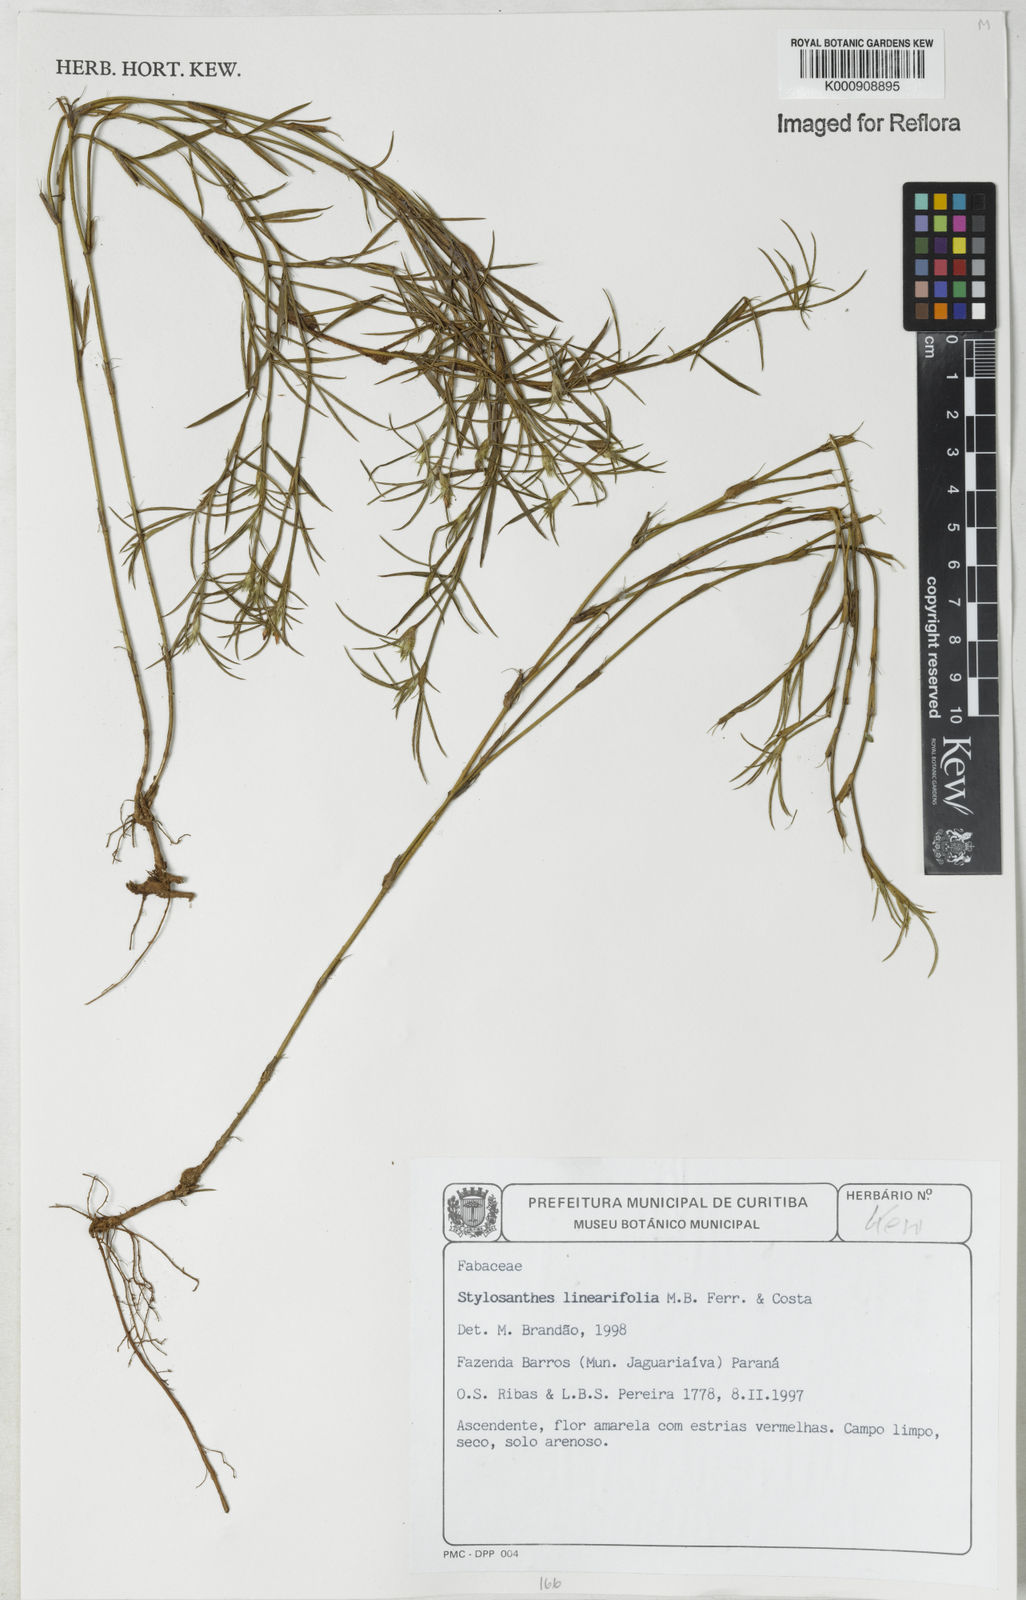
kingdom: Plantae
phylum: Tracheophyta
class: Magnoliopsida
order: Fabales
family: Fabaceae
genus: Stylosanthes
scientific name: Stylosanthes
